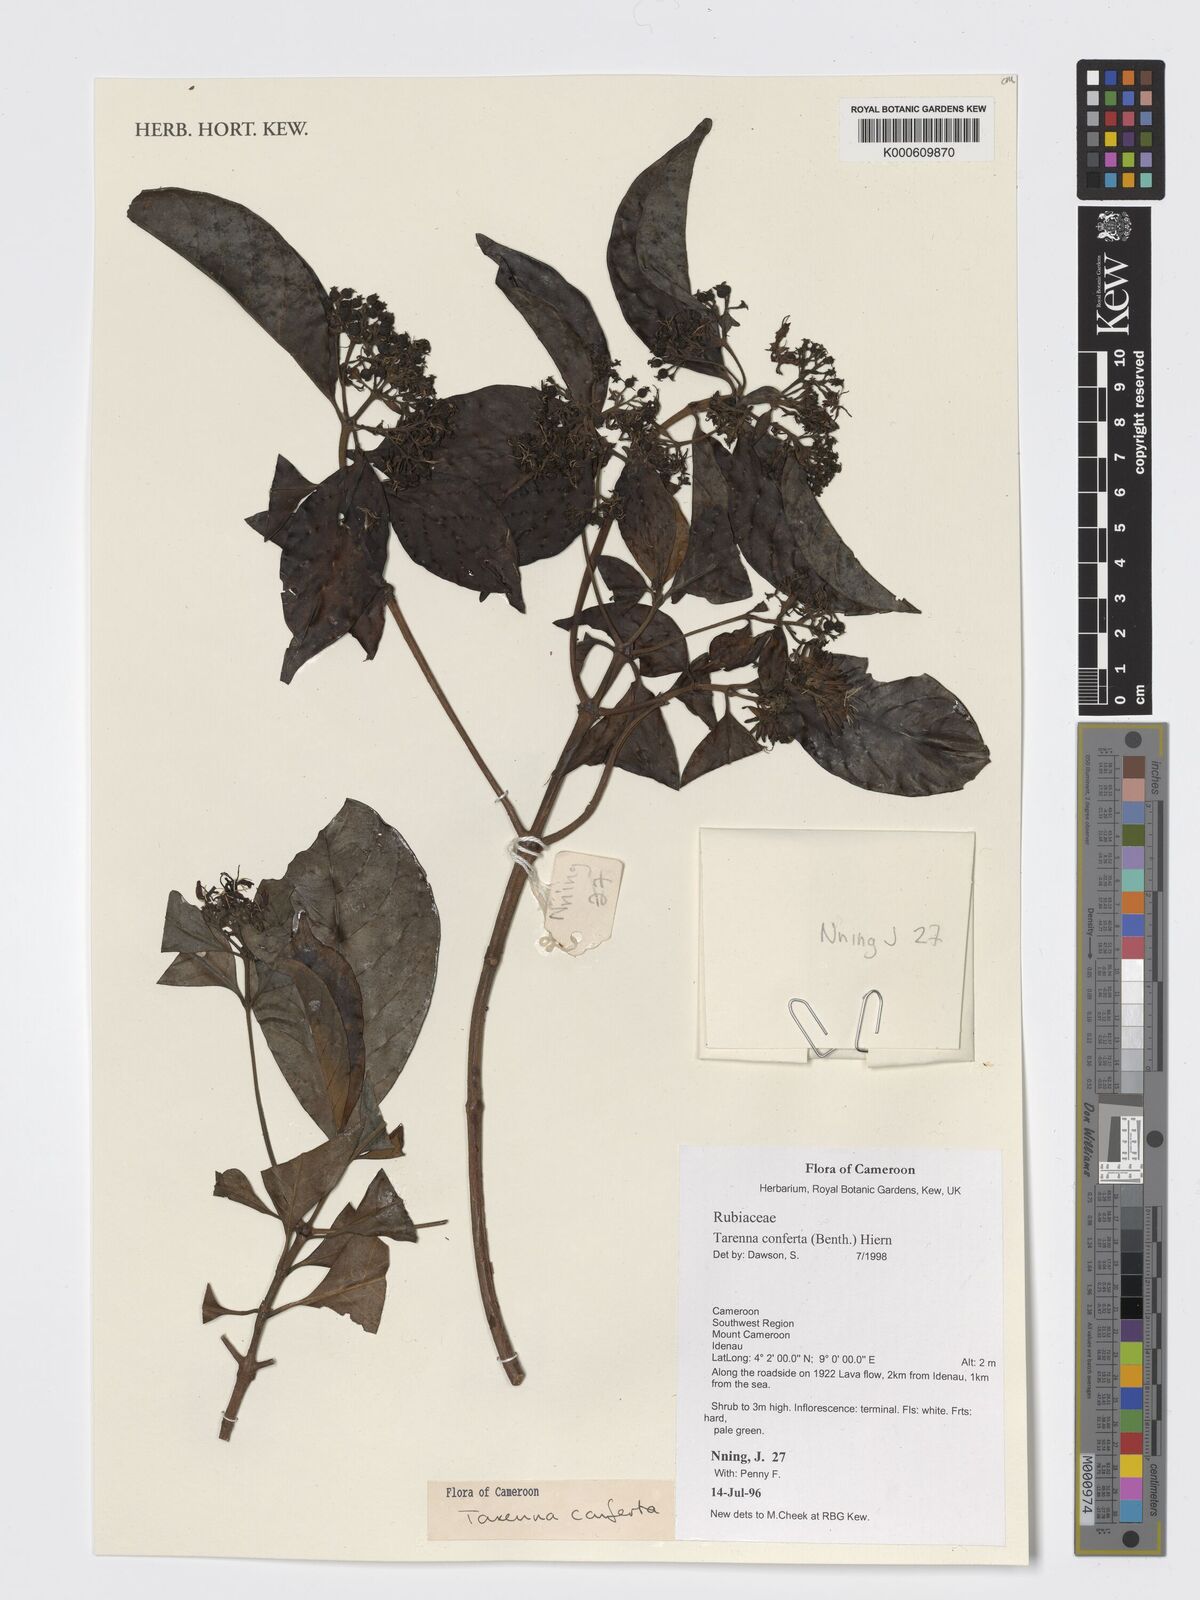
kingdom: Plantae
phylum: Tracheophyta
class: Magnoliopsida
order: Gentianales
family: Rubiaceae
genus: Tarenna
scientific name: Tarenna conferta
